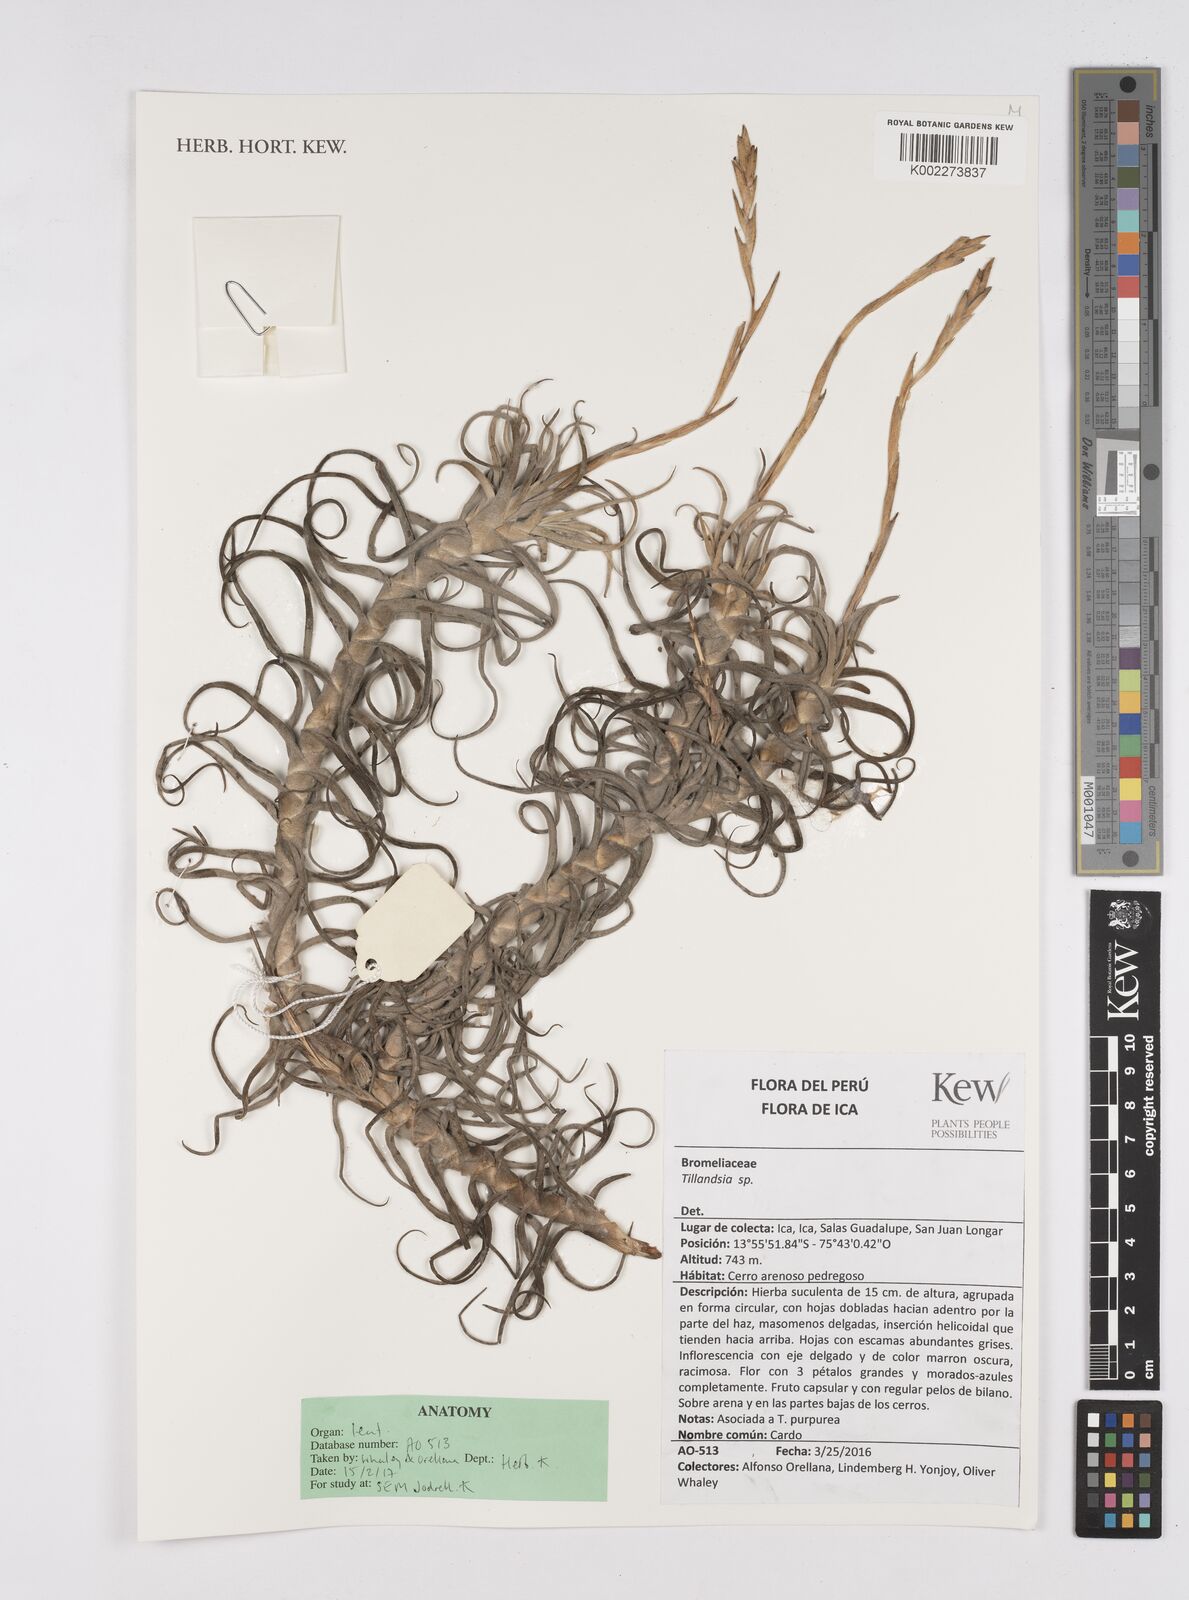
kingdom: Plantae
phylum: Tracheophyta
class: Liliopsida
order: Poales
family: Bromeliaceae
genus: Tillandsia
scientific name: Tillandsia
